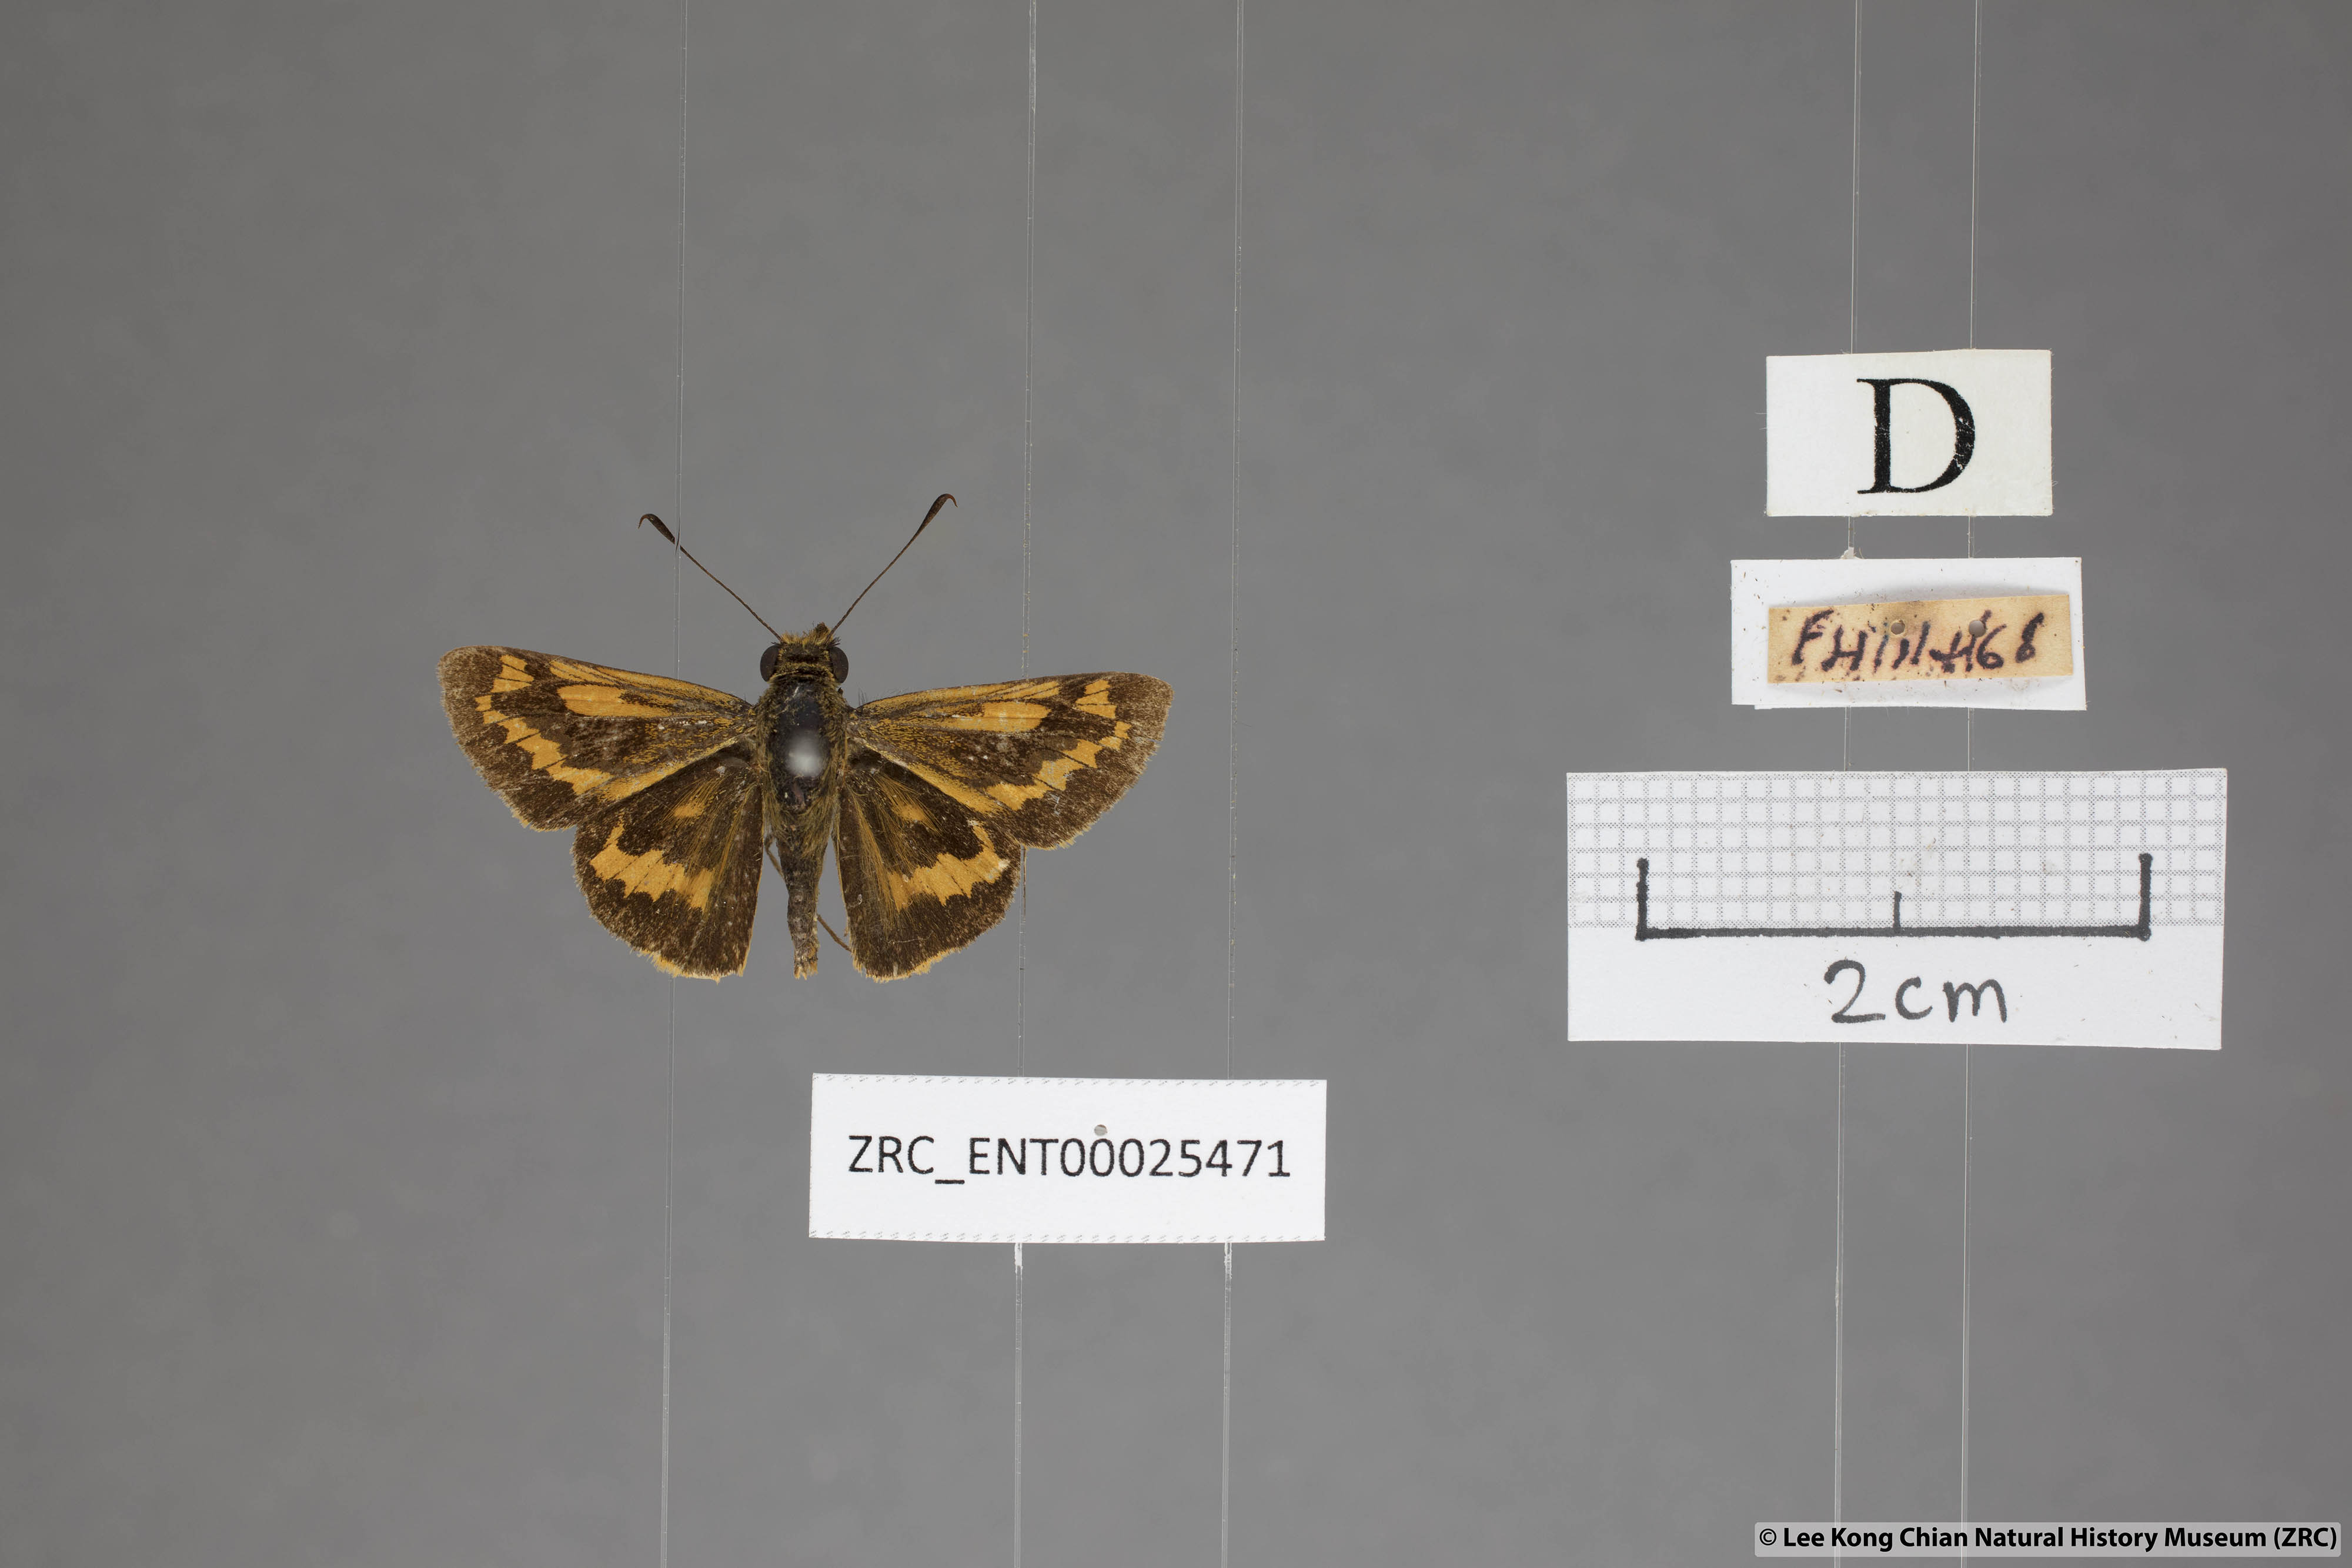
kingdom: Animalia
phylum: Arthropoda
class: Insecta
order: Lepidoptera
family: Hesperiidae
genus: Potanthus
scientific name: Potanthus rectifasciata
